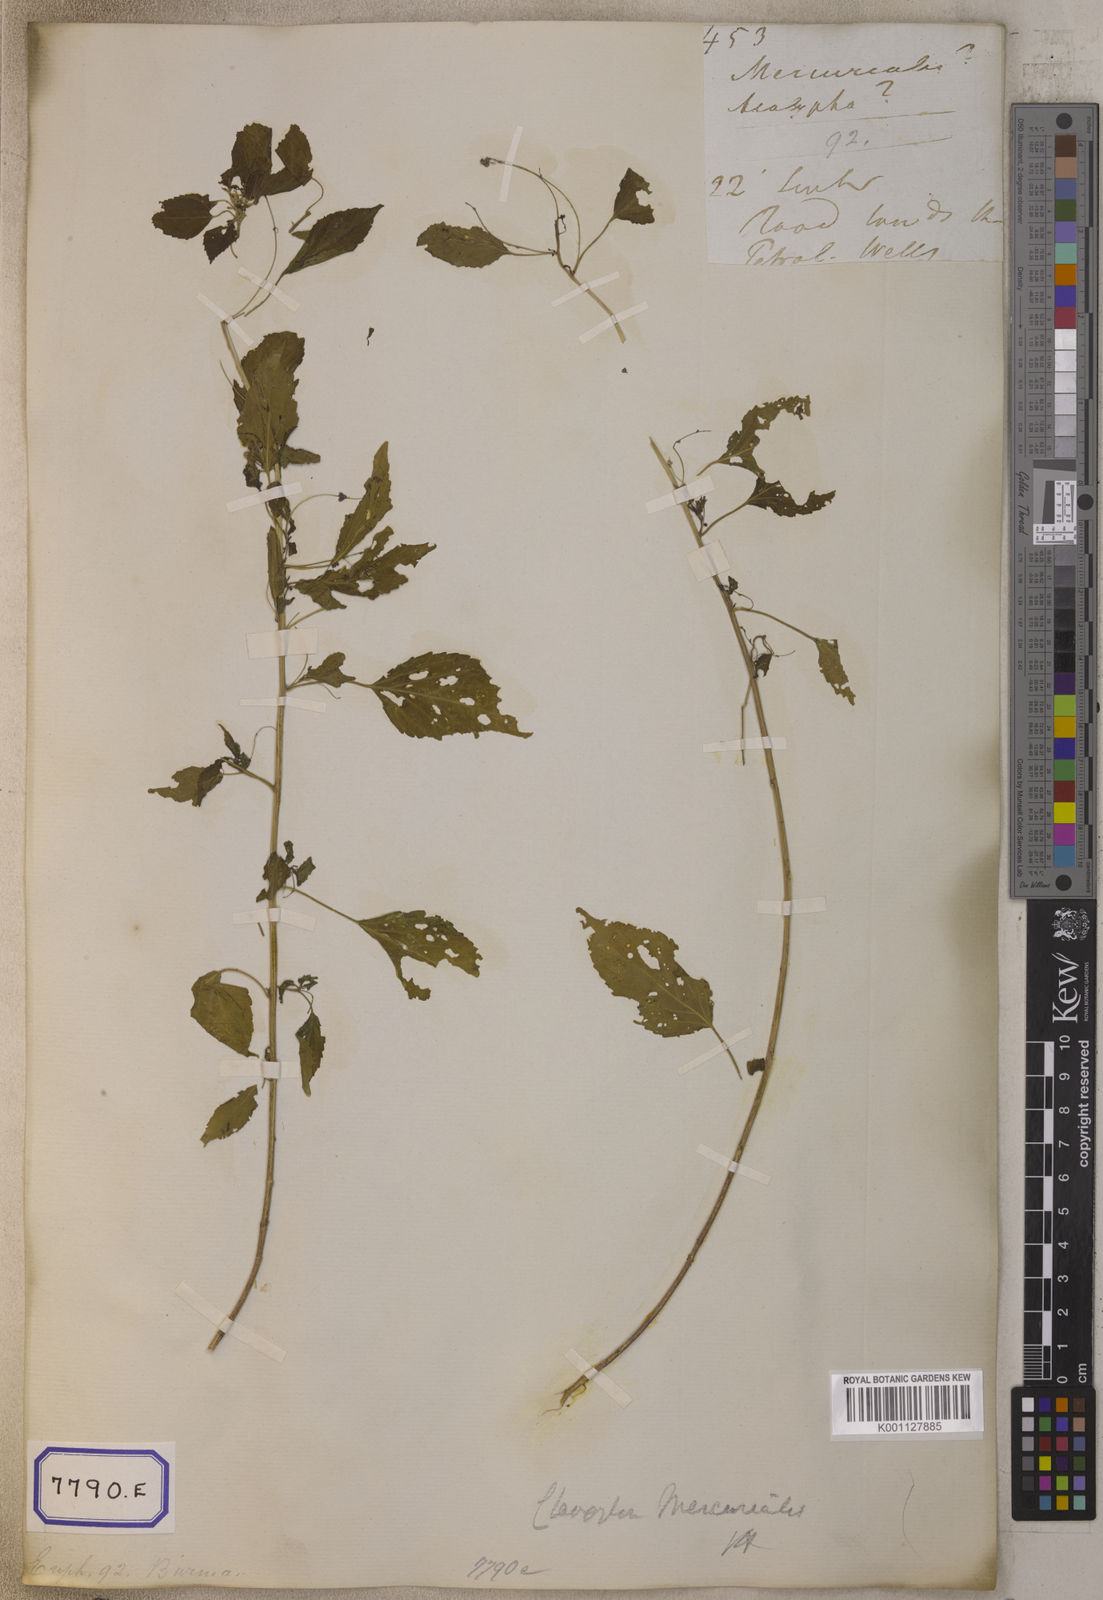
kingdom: Plantae
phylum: Tracheophyta
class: Magnoliopsida
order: Malpighiales
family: Euphorbiaceae
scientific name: Euphorbiaceae
